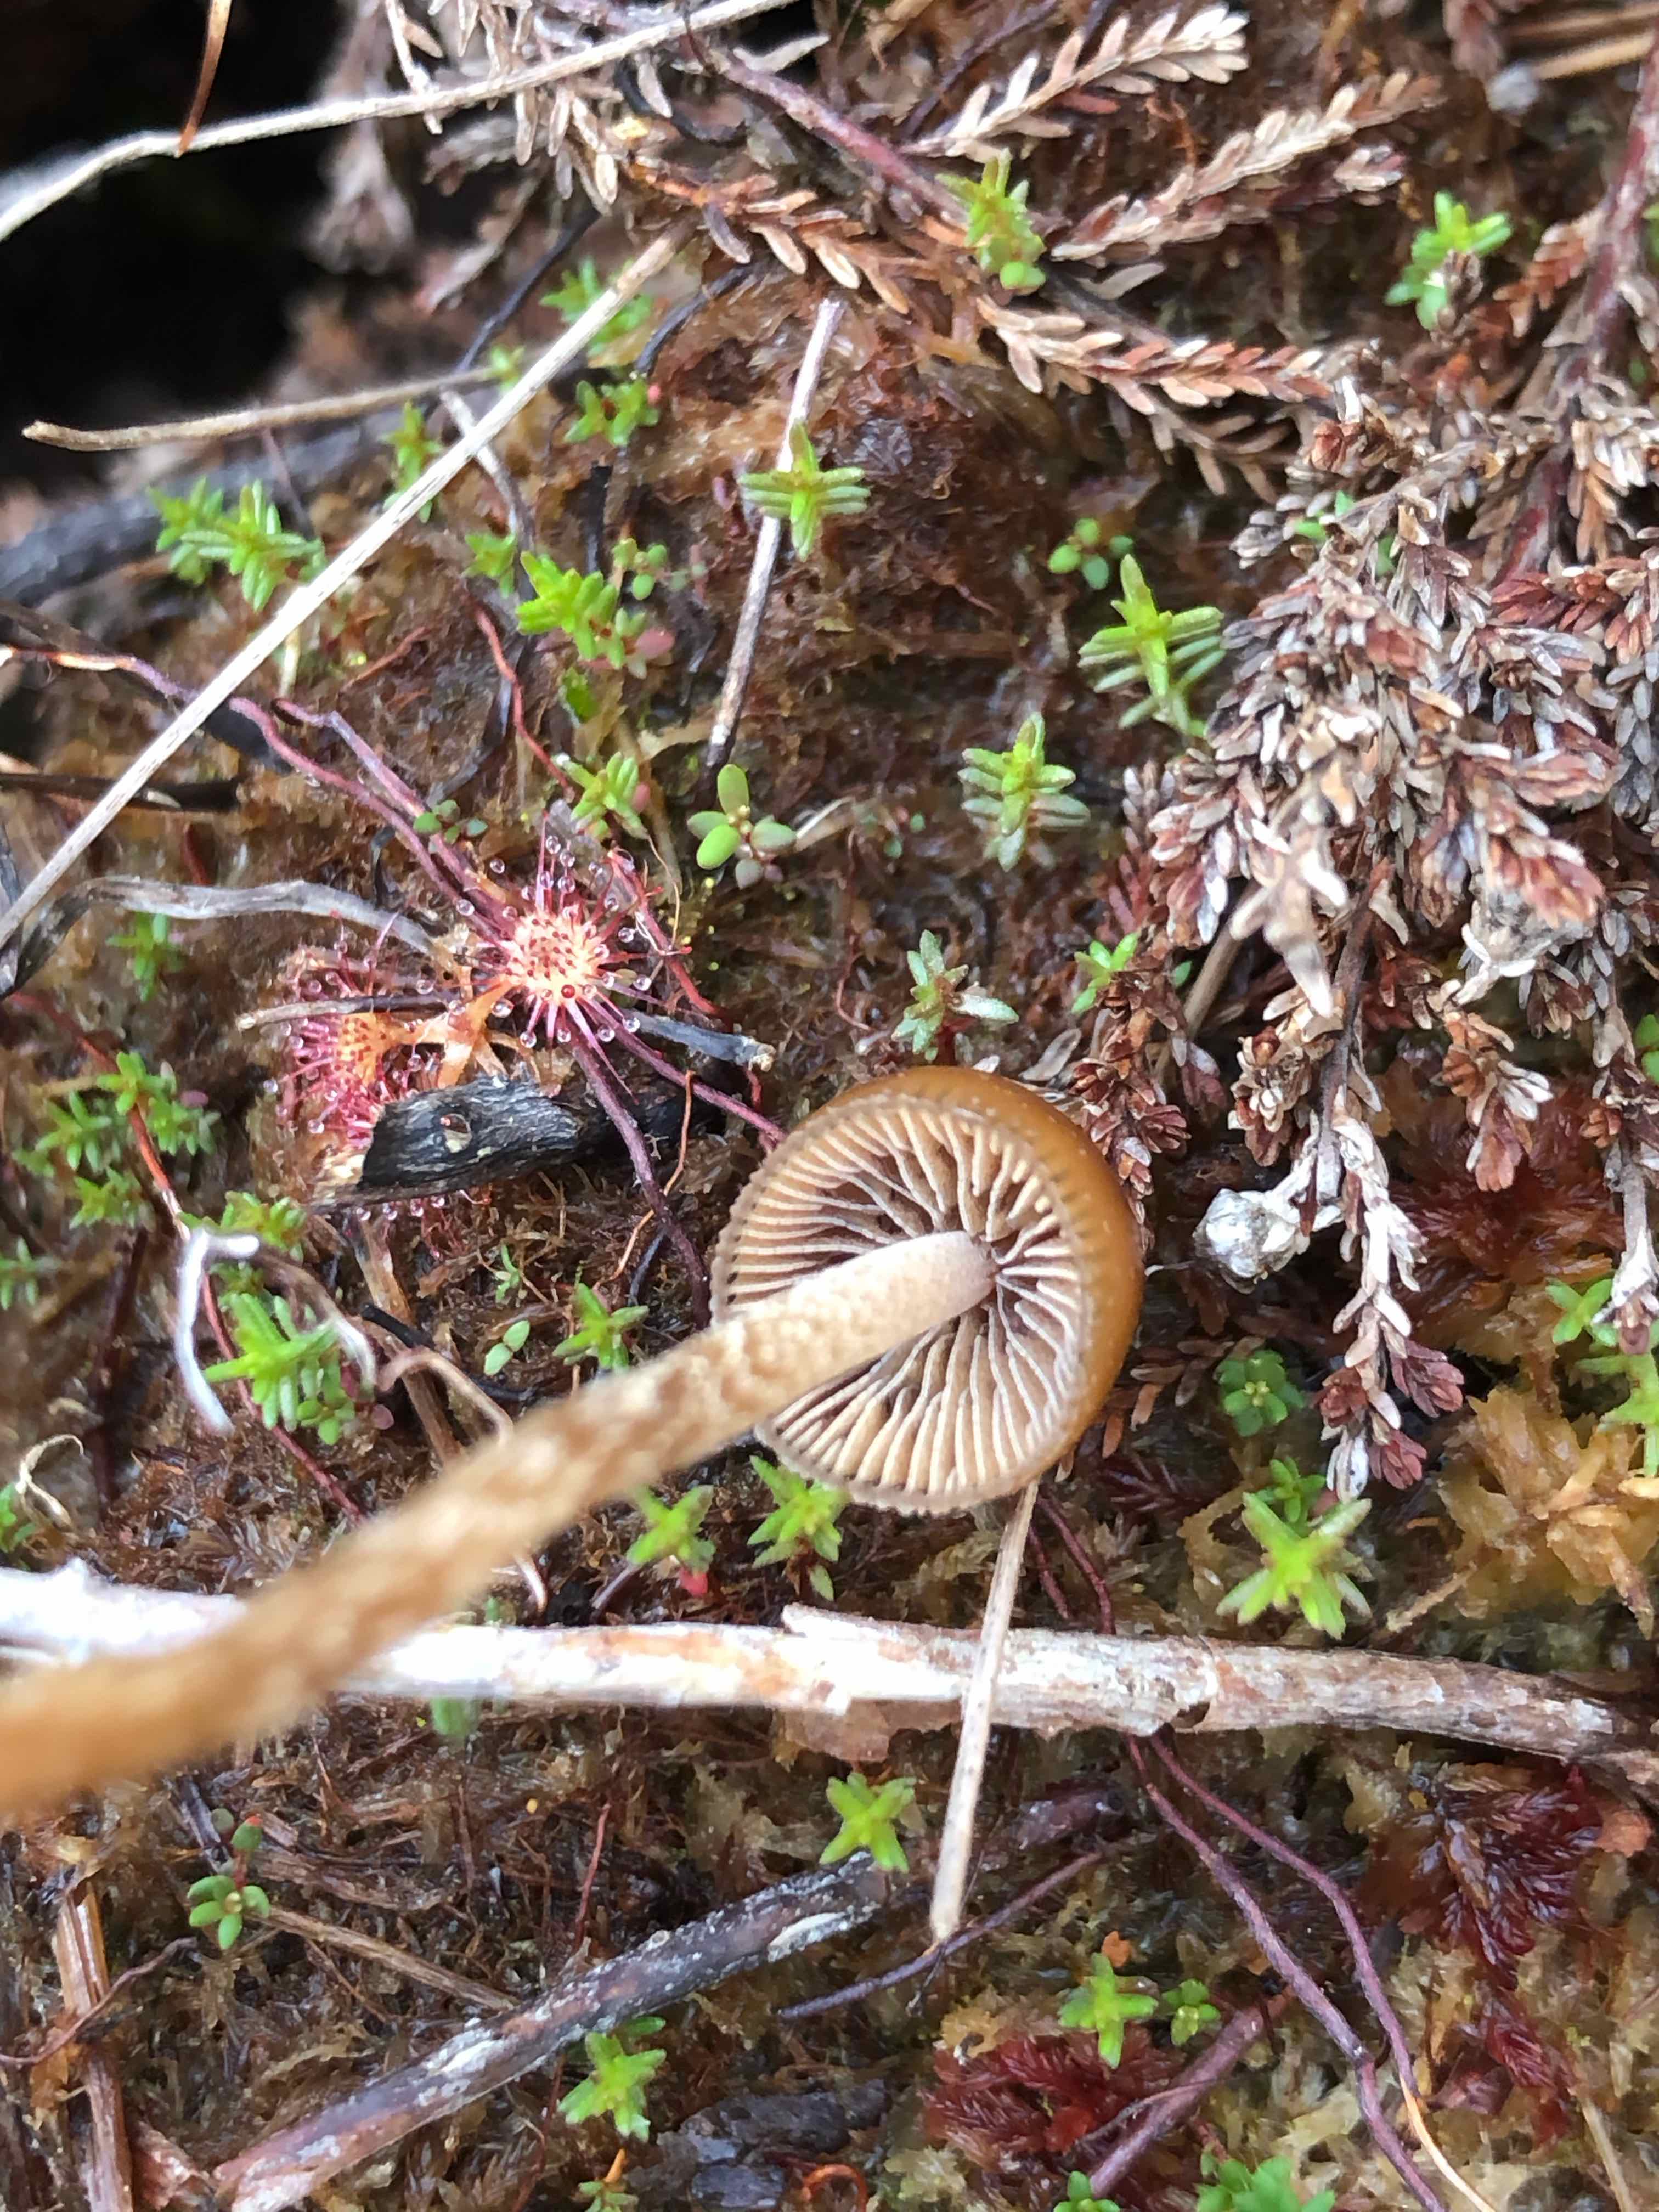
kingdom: Fungi
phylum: Basidiomycota
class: Agaricomycetes
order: Agaricales
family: Strophariaceae
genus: Bogbodia
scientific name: Bogbodia uda
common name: tørve-svovlhat
